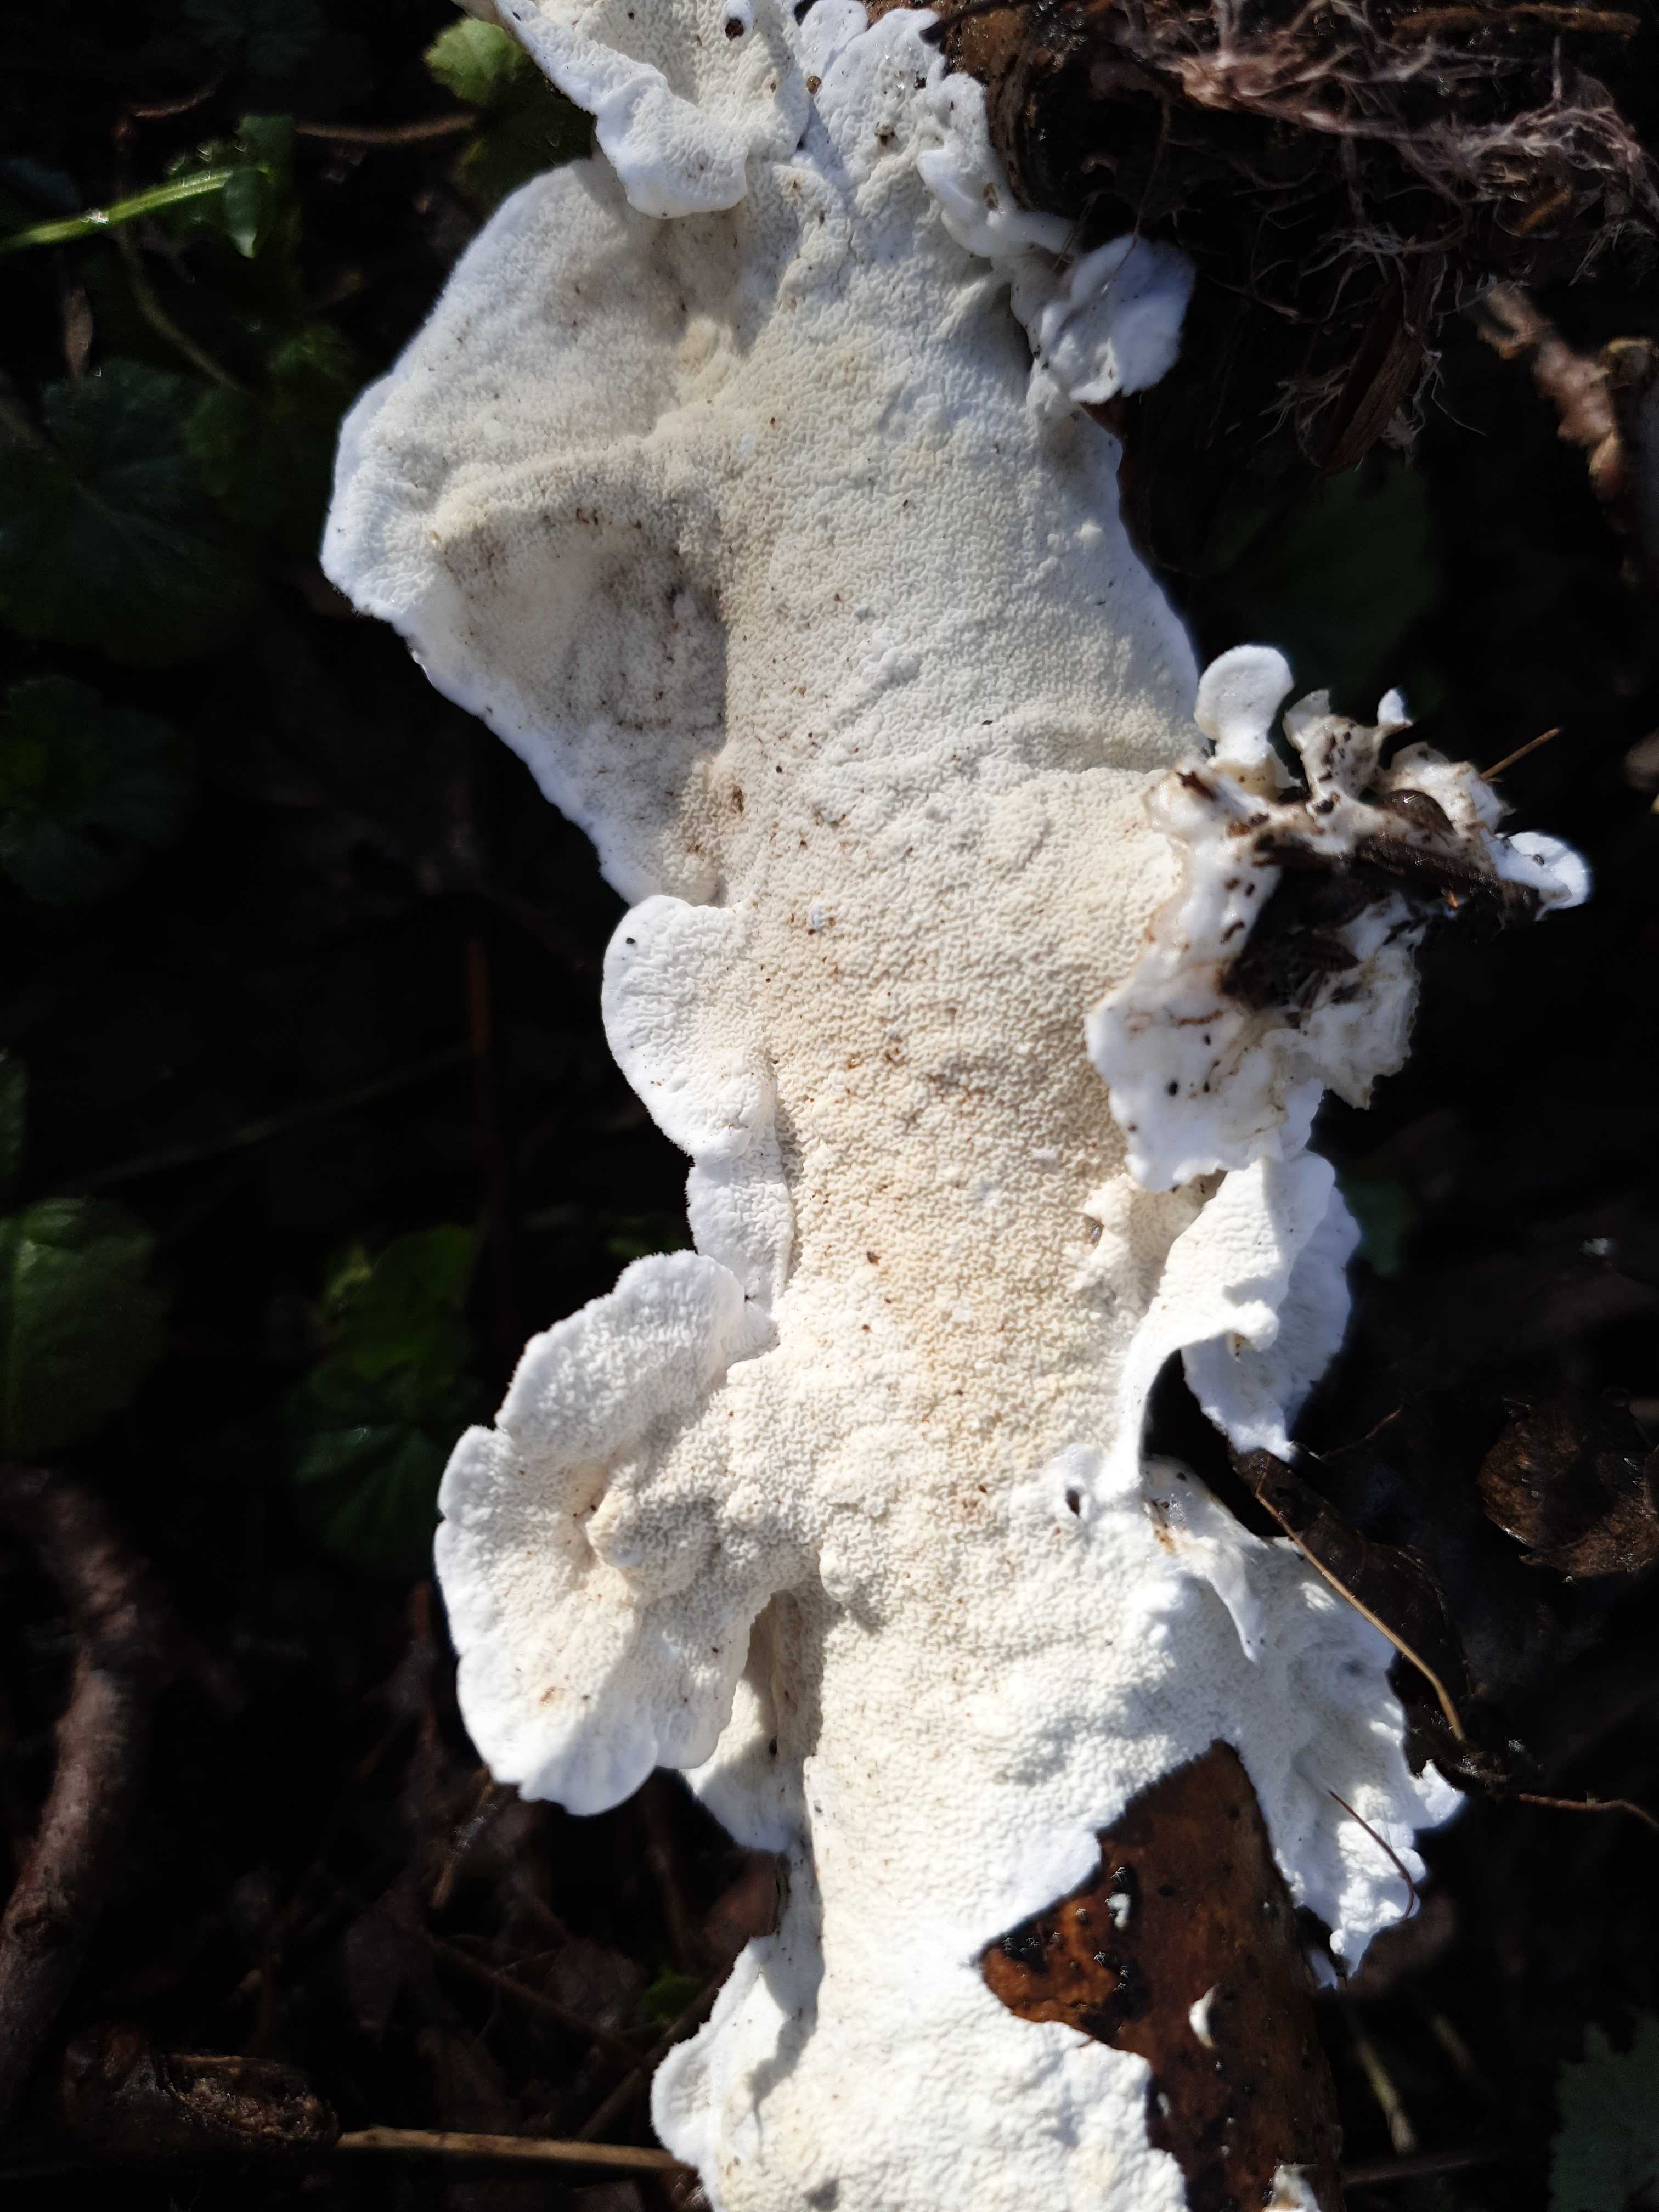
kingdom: Fungi
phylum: Basidiomycota
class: Agaricomycetes
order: Polyporales
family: Irpicaceae
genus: Byssomerulius
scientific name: Byssomerulius corium
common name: læder-åresvamp
